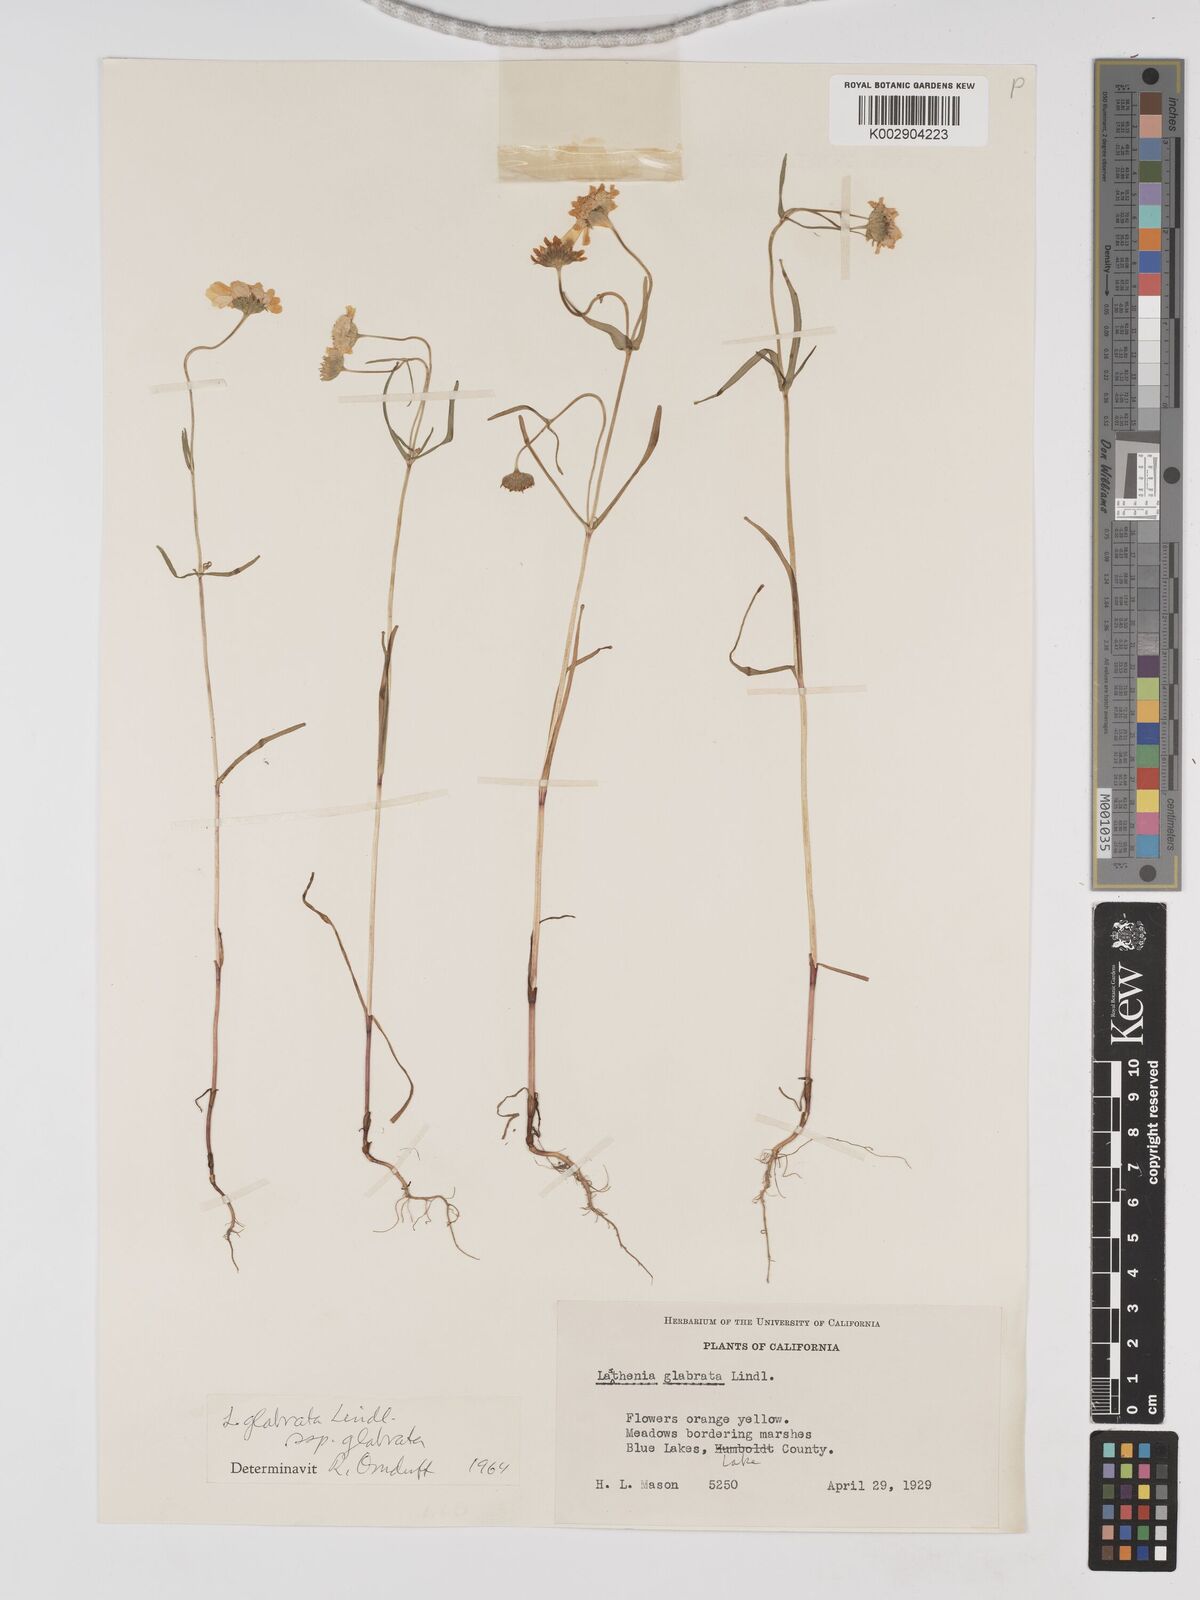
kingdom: Plantae
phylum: Tracheophyta
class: Magnoliopsida
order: Asterales
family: Asteraceae
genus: Lasthenia
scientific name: Lasthenia glabrata
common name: Yellow-ray lasthenia
